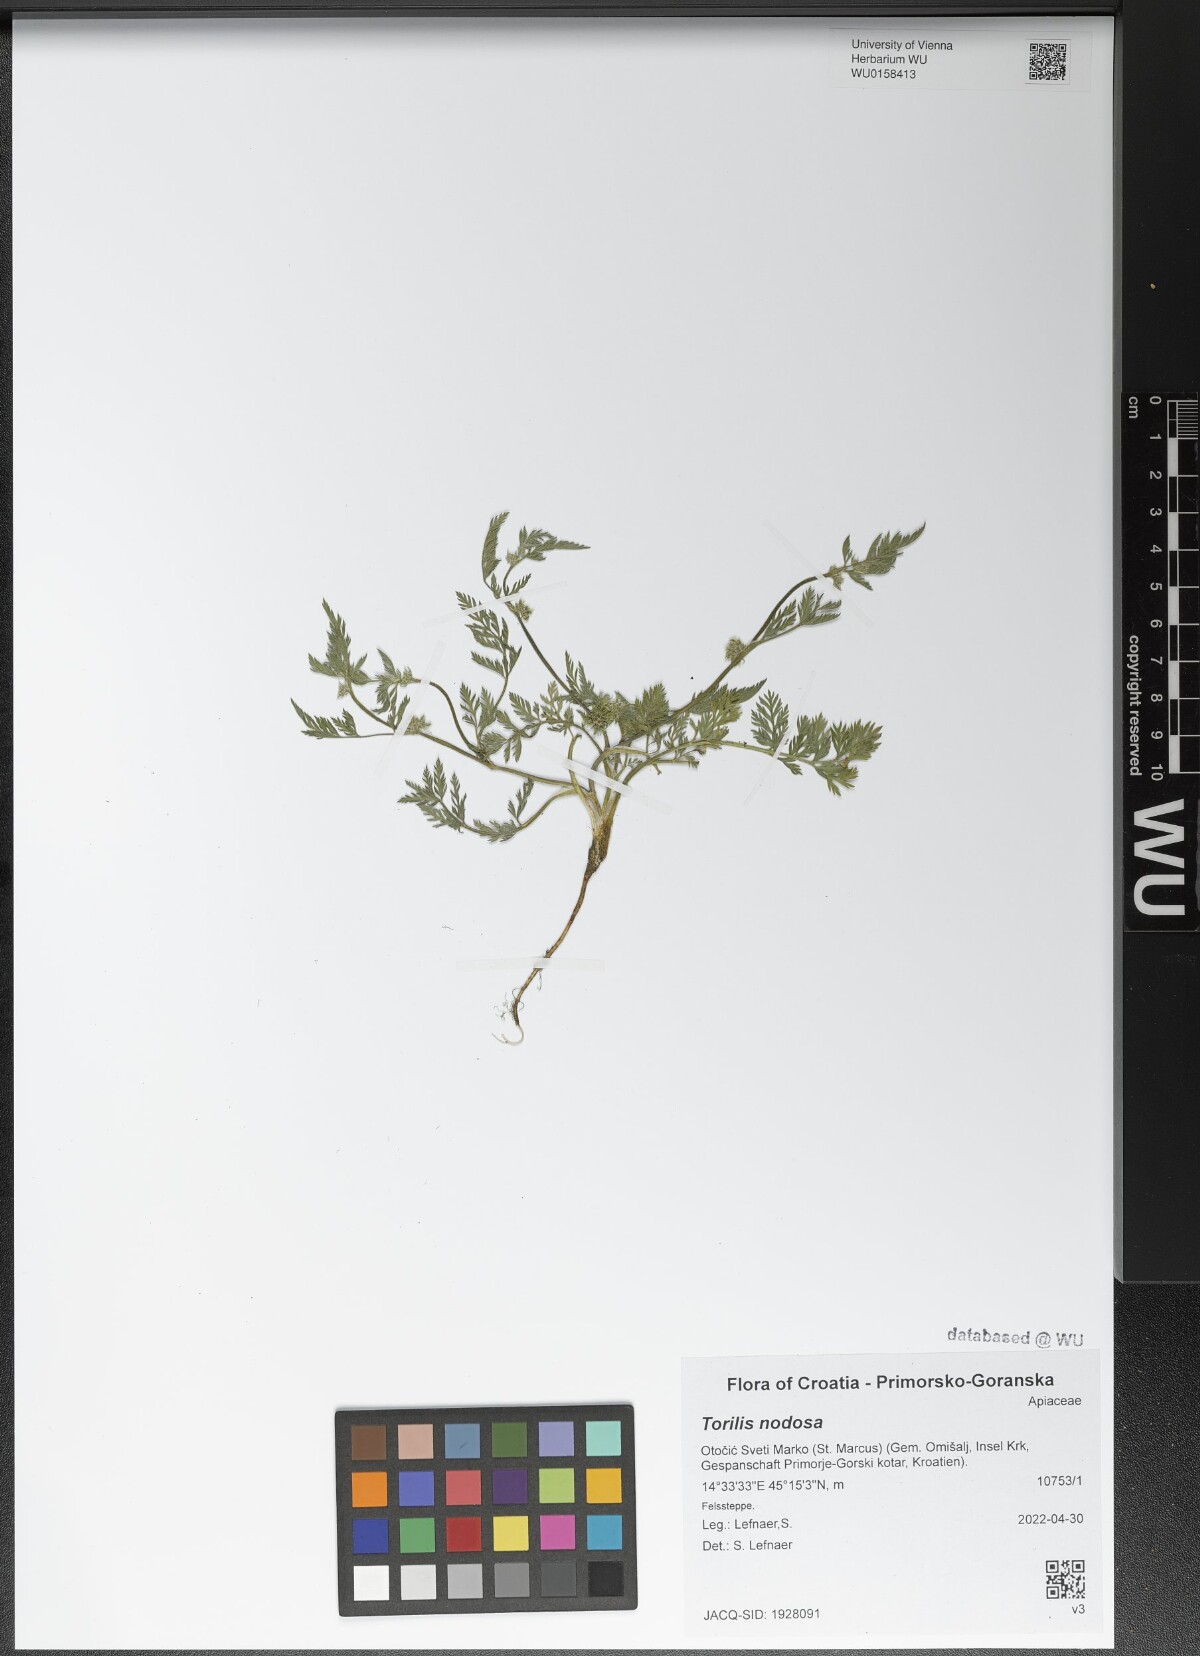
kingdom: Plantae
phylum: Tracheophyta
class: Magnoliopsida
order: Apiales
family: Apiaceae
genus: Torilis
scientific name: Torilis nodosa
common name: Knotted hedge-parsley
